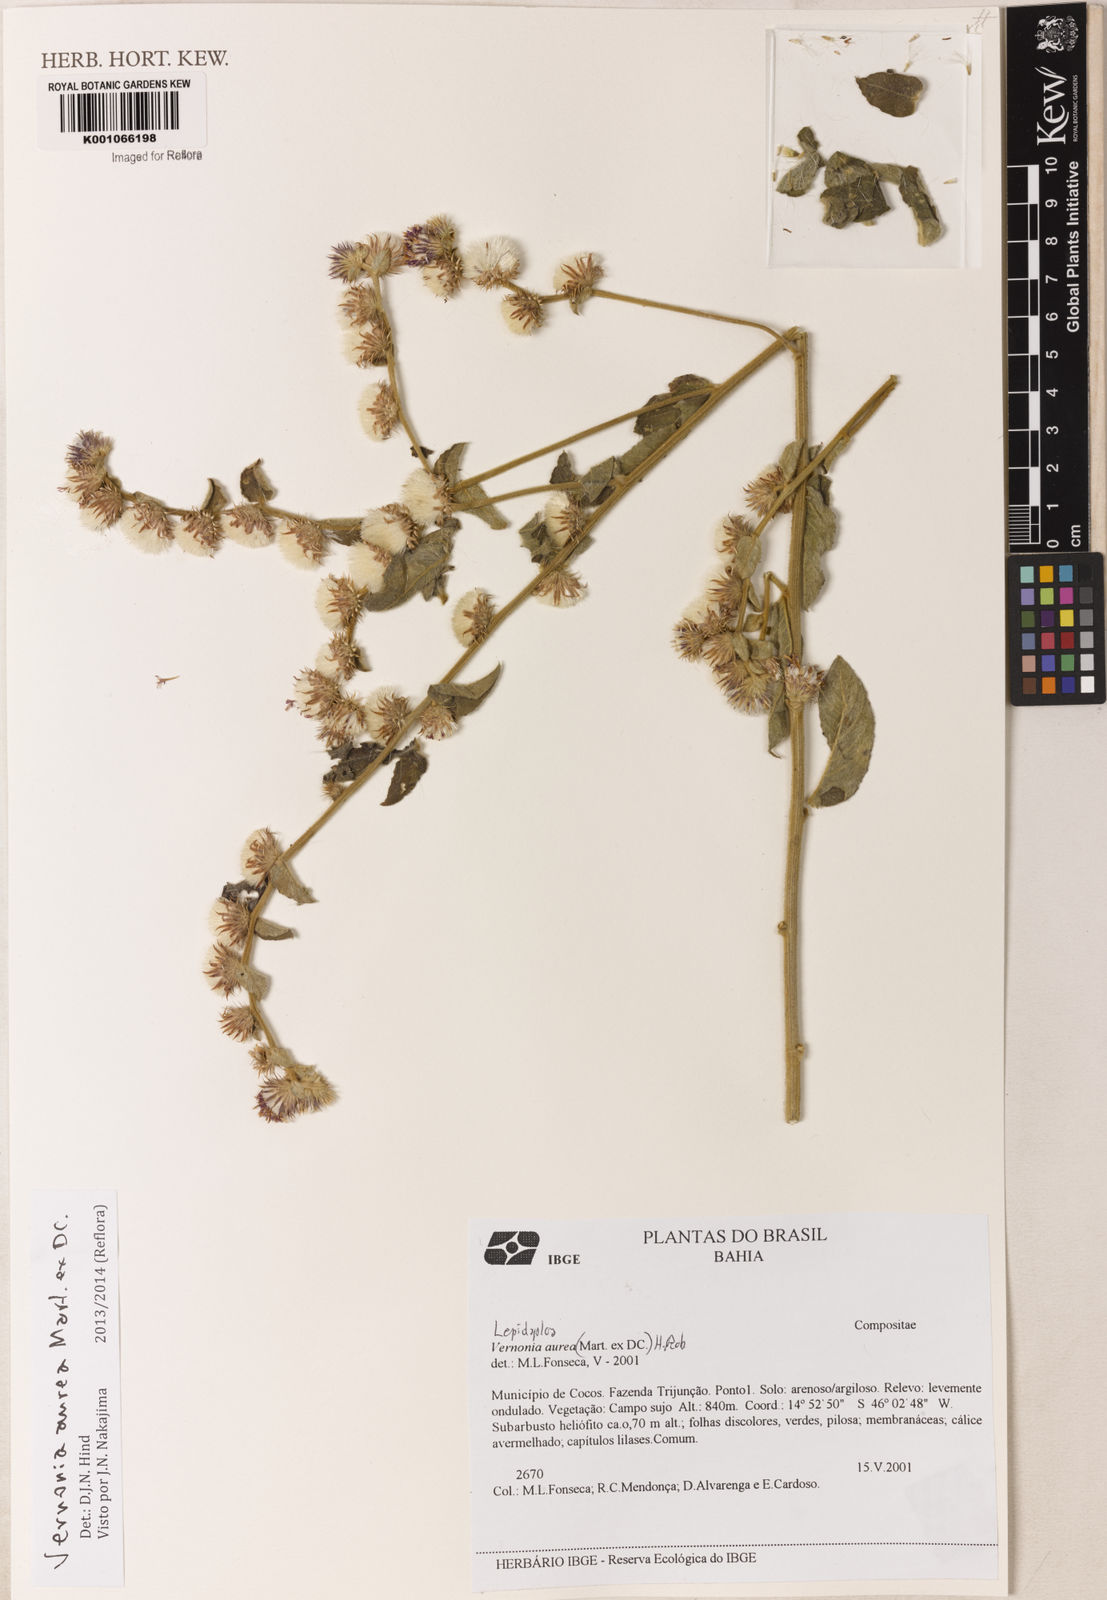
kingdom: Plantae
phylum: Tracheophyta
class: Magnoliopsida
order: Asterales
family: Asteraceae
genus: Lepidaploa
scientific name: Lepidaploa aurea
